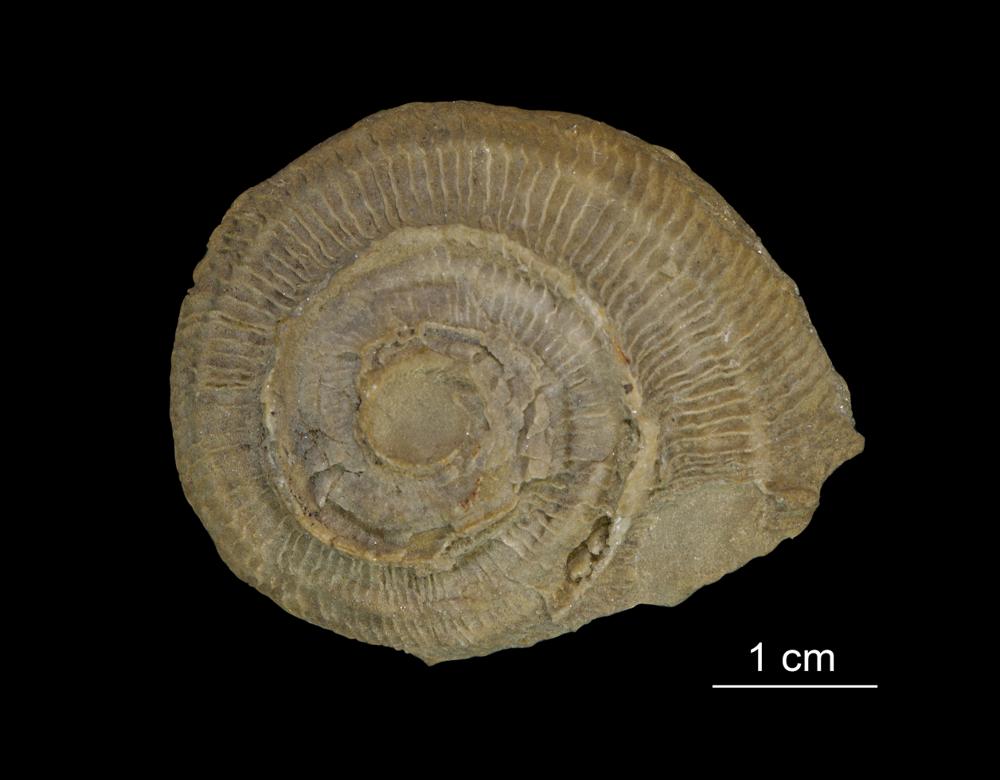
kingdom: Animalia
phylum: Mollusca
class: Gastropoda
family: Euomphalidae
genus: Poleumita
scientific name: Poleumita Euomphalus discors
